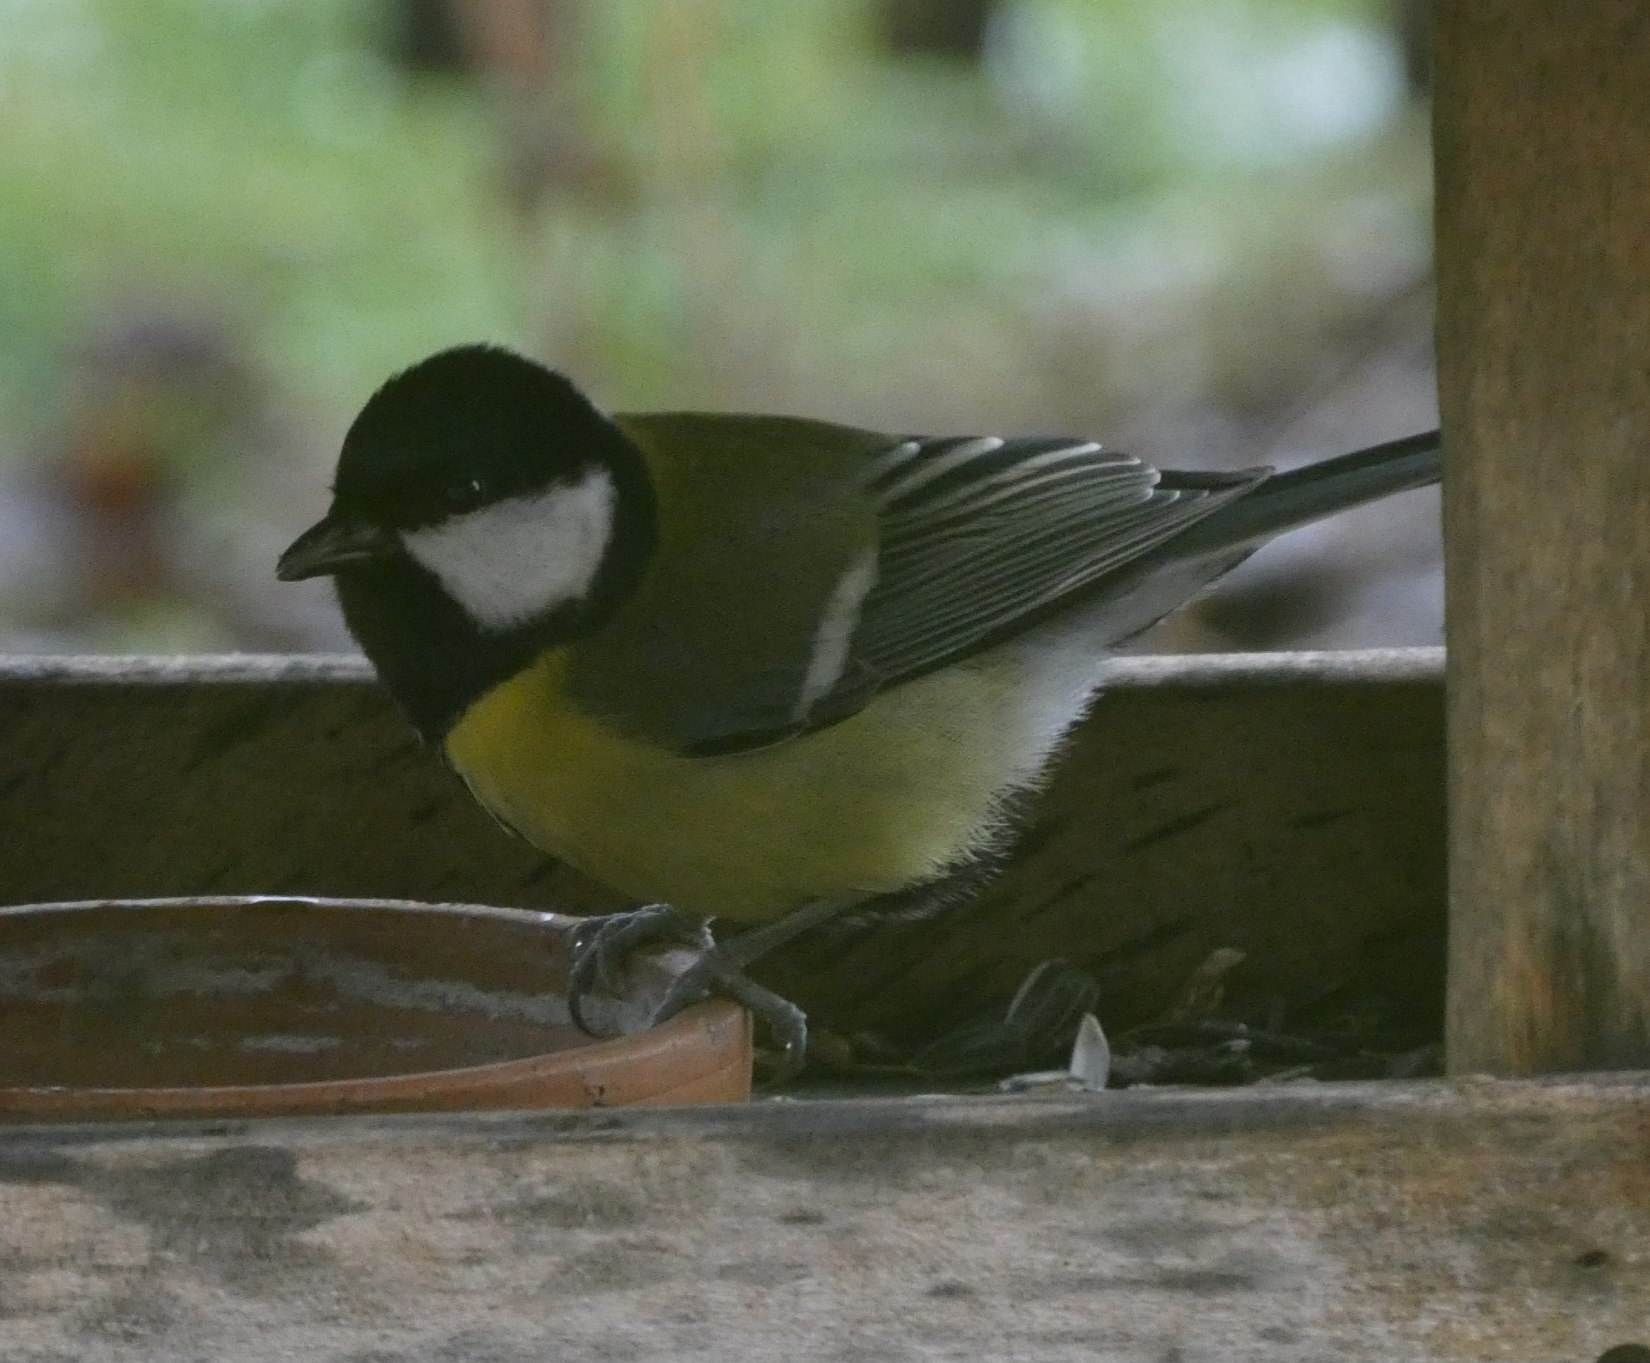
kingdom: Animalia
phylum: Chordata
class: Aves
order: Passeriformes
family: Paridae
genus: Parus
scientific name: Parus major
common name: Musvit
